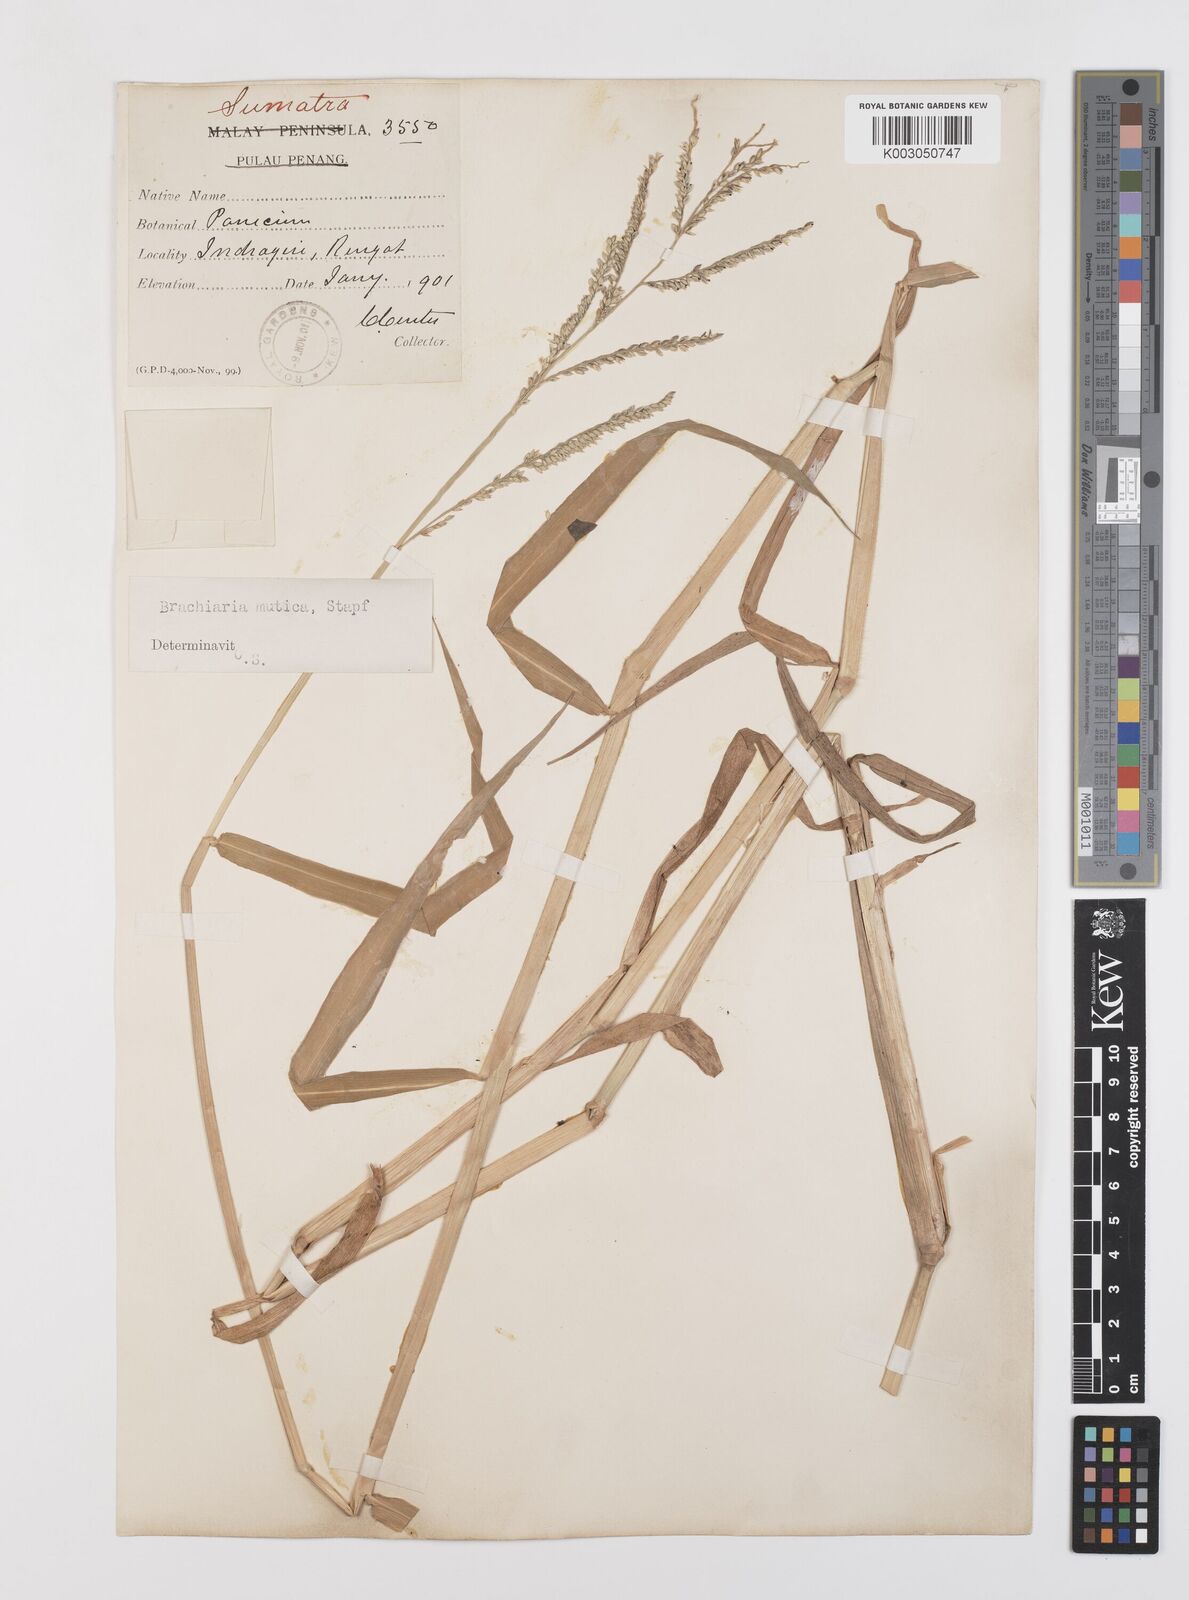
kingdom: Plantae
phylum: Tracheophyta
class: Liliopsida
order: Poales
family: Poaceae
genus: Urochloa
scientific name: Urochloa mutica
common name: Para grass
